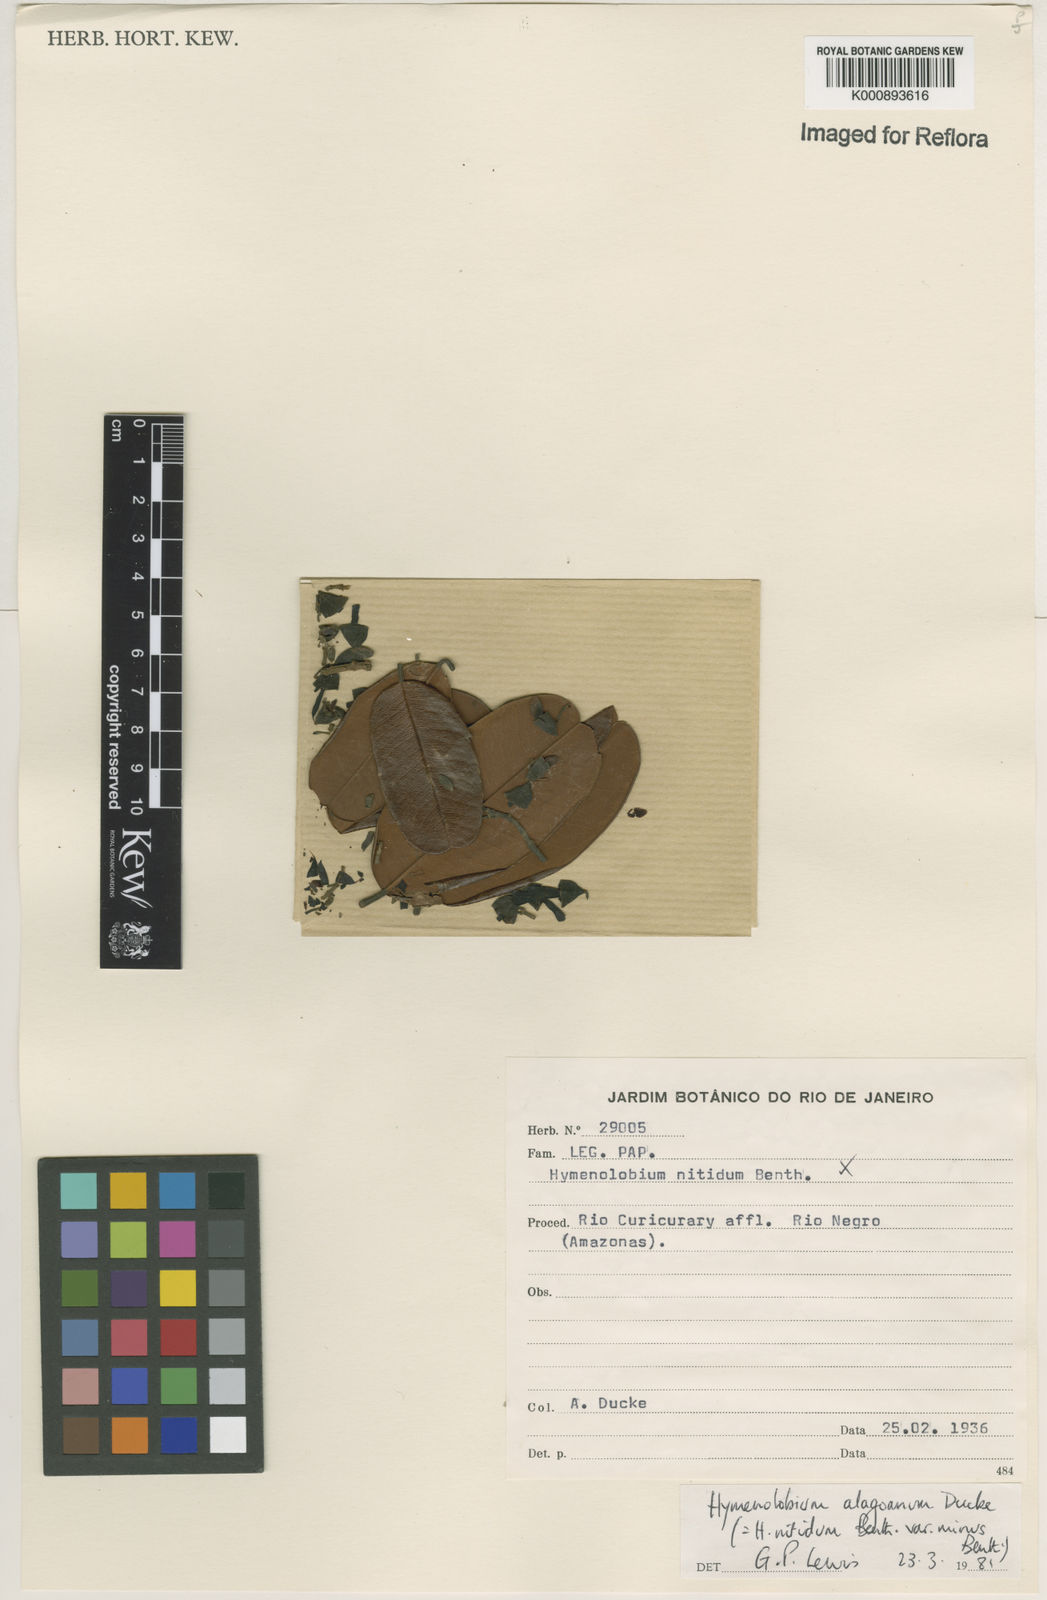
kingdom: Plantae
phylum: Tracheophyta
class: Magnoliopsida
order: Fabales
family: Fabaceae
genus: Hymenolobium
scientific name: Hymenolobium nitidum
